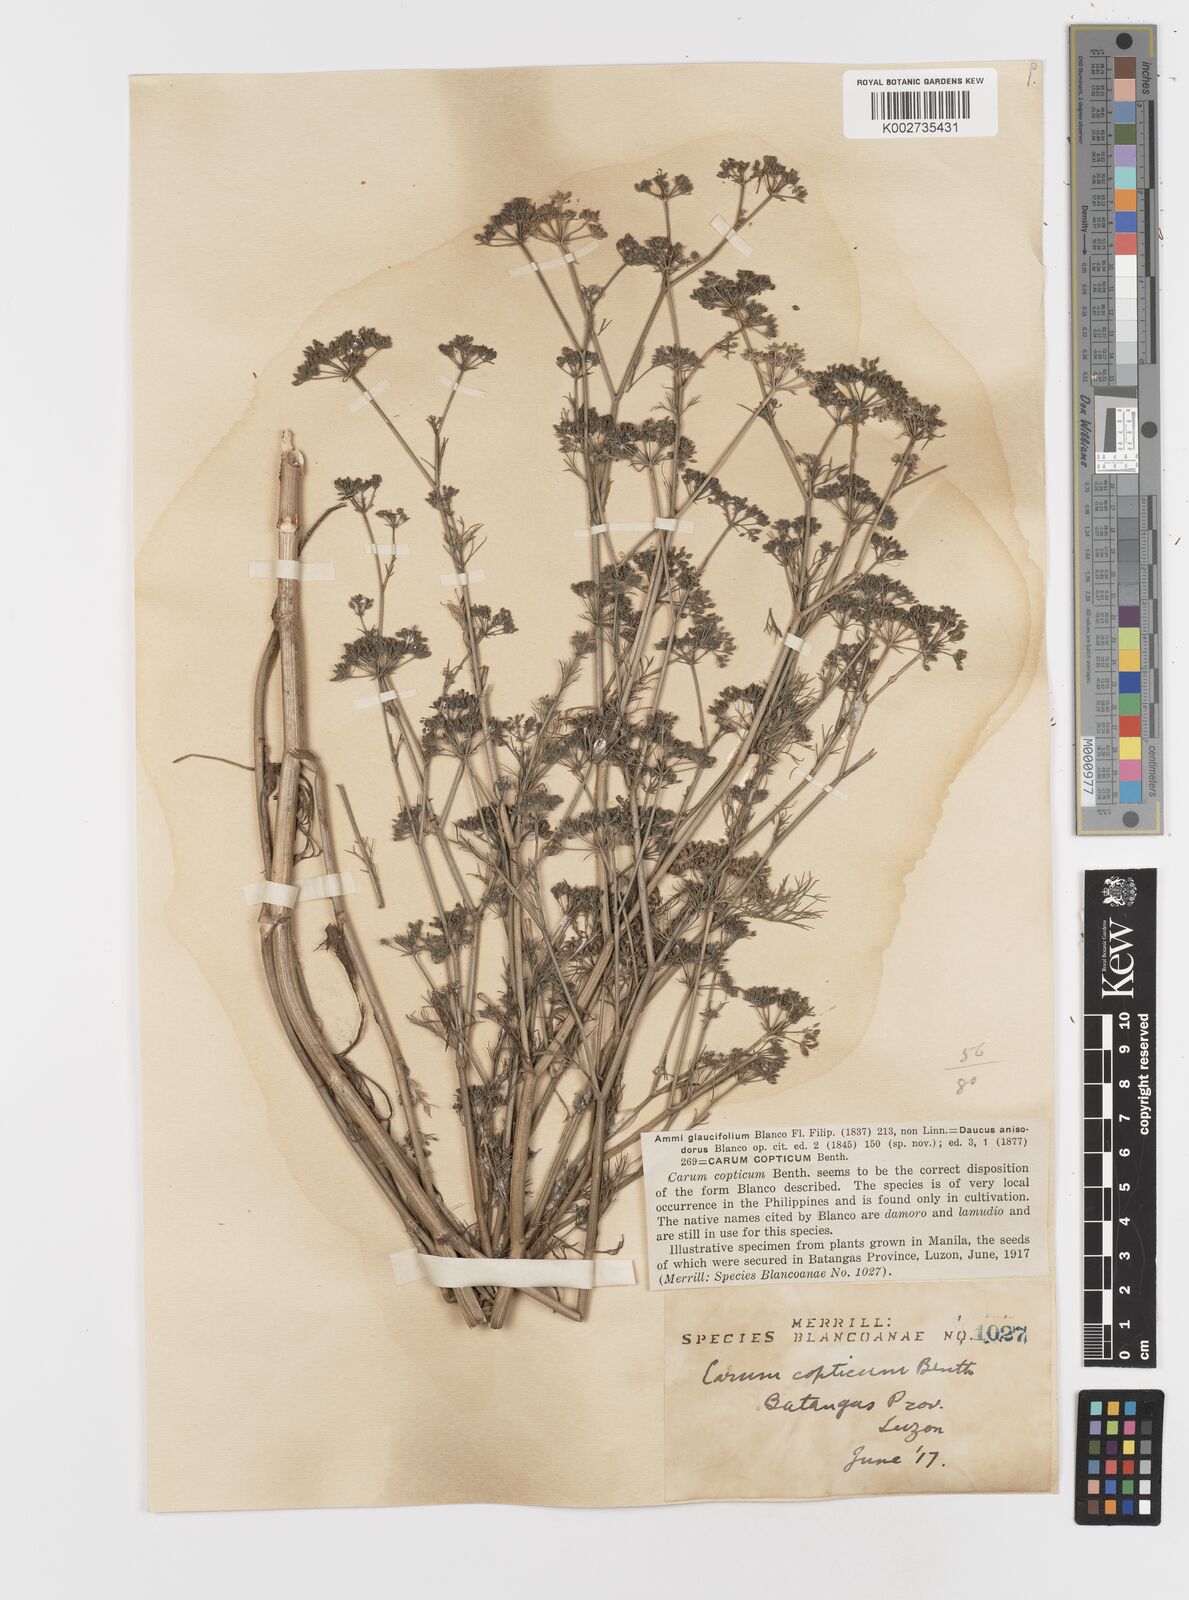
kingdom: Plantae
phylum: Tracheophyta
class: Magnoliopsida
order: Apiales
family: Apiaceae
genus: Trachyspermum
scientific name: Trachyspermum ammi
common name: Ajowan
